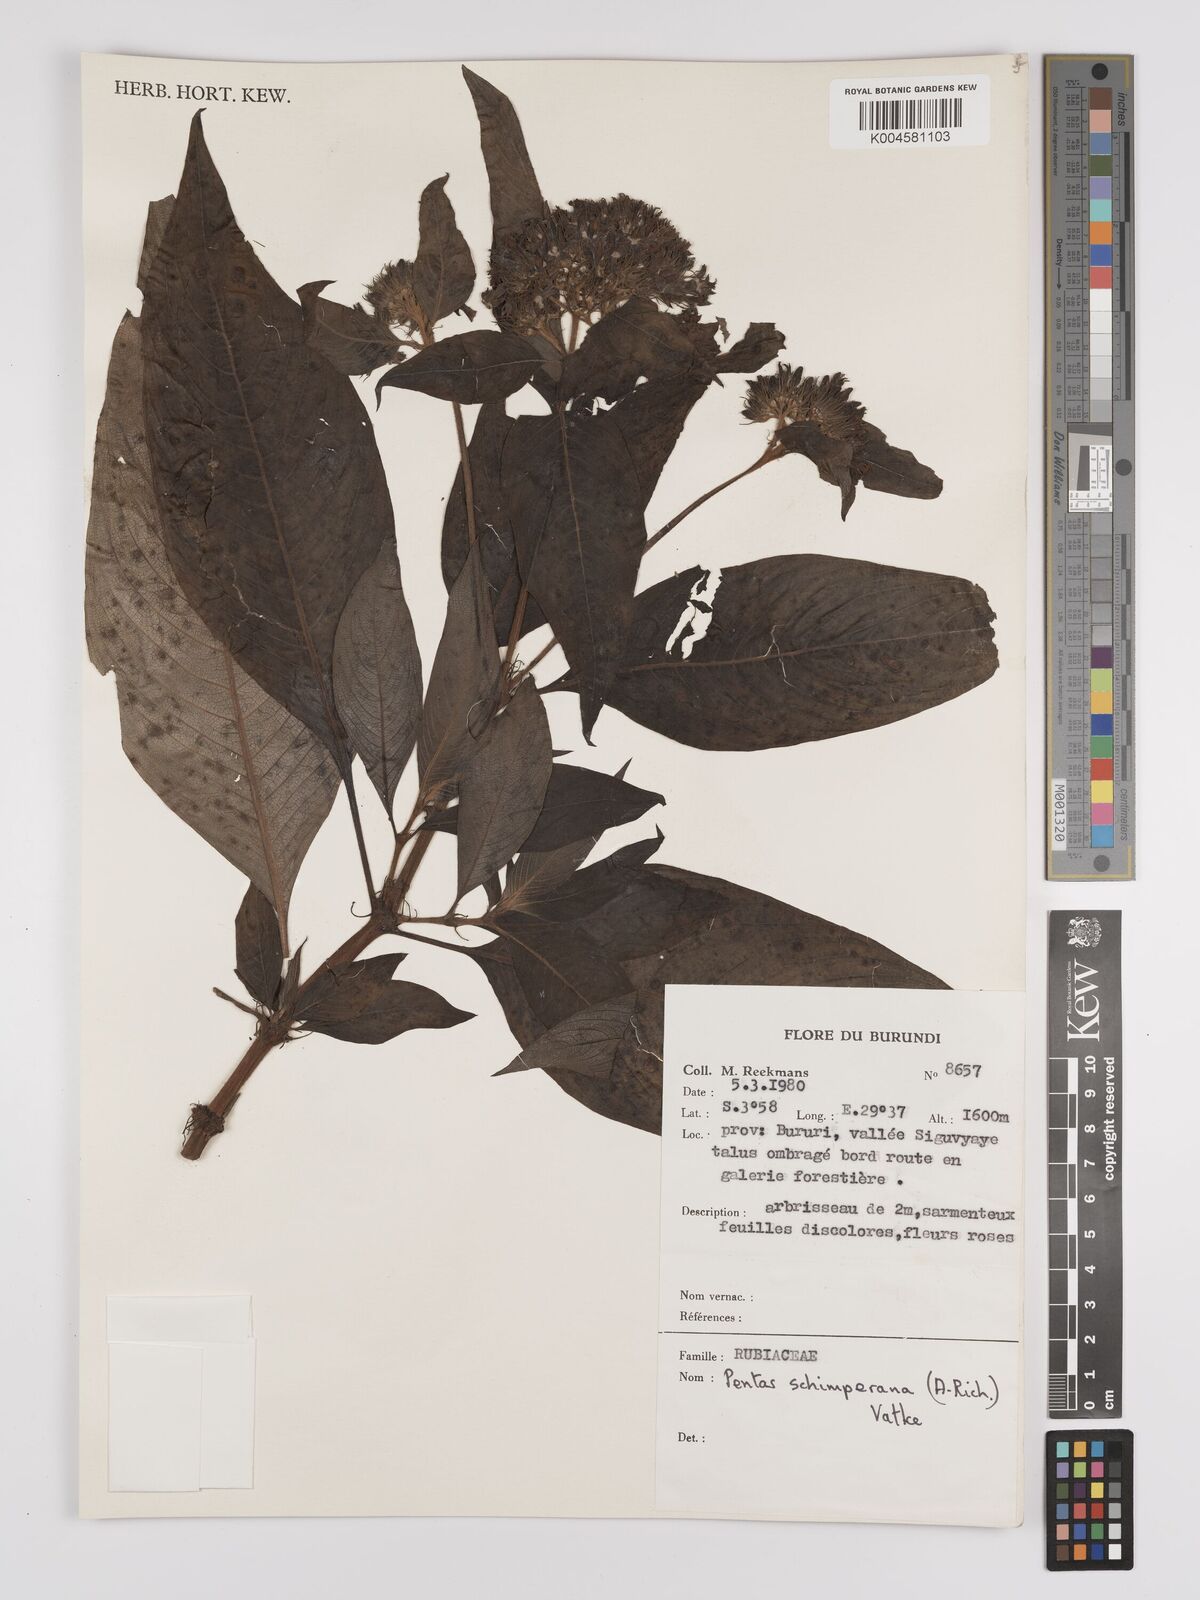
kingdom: Plantae
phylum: Tracheophyta
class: Magnoliopsida
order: Gentianales
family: Rubiaceae
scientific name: Rubiaceae
